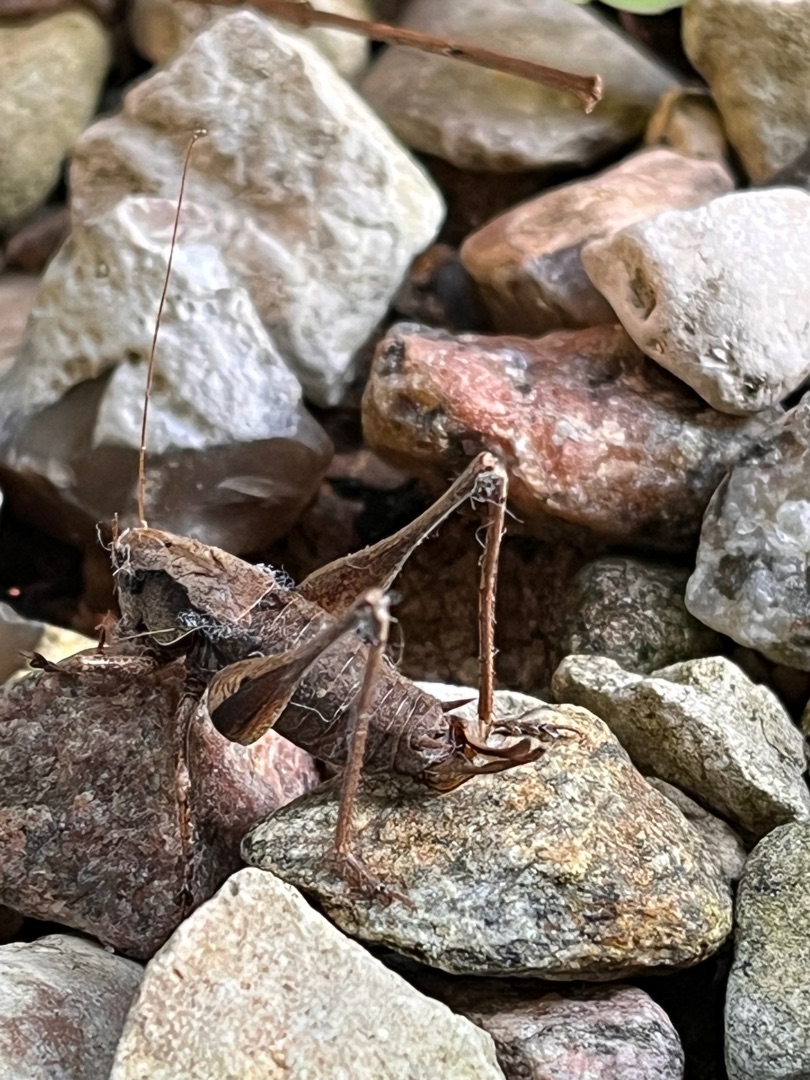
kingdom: Animalia
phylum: Arthropoda
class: Insecta
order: Orthoptera
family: Tettigoniidae
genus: Pholidoptera
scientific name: Pholidoptera griseoaptera
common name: Buskgræshoppe
